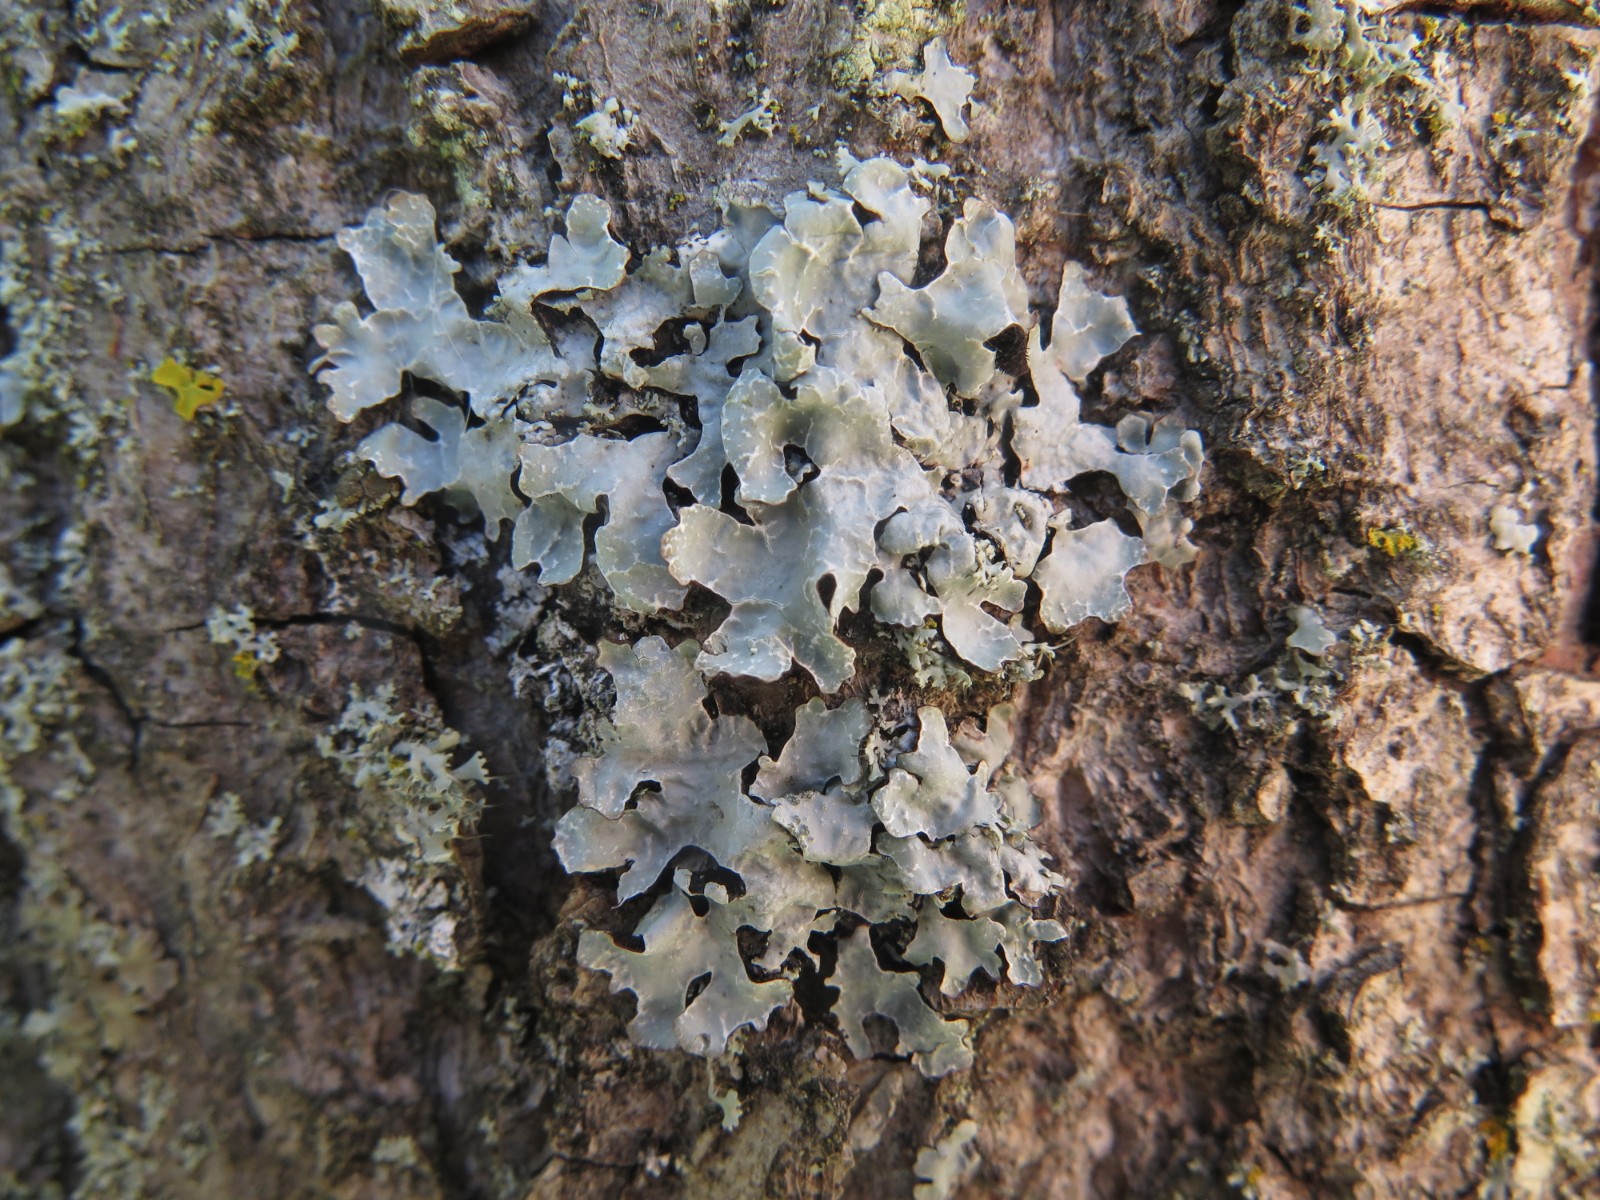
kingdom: Fungi
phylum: Ascomycota
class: Lecanoromycetes
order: Lecanorales
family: Parmeliaceae
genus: Parmelia
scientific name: Parmelia sulcata
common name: rynket skållav
